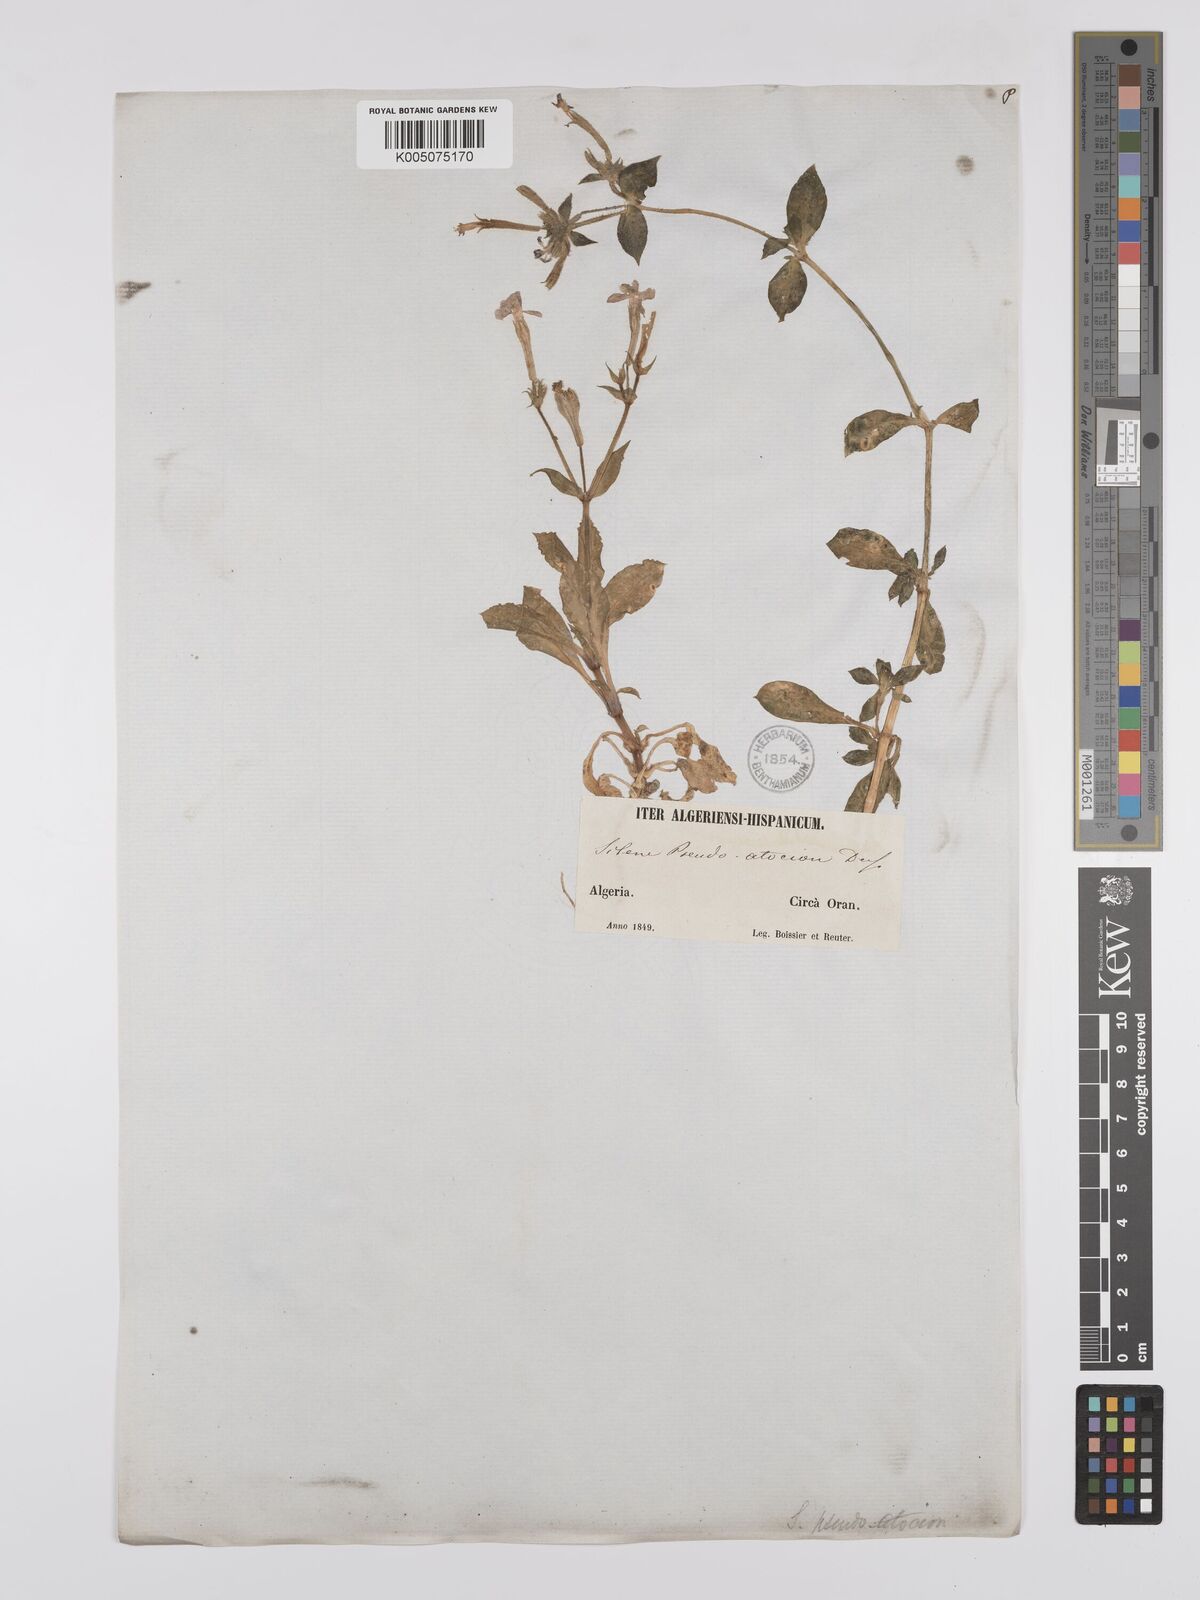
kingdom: Plantae
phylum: Tracheophyta
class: Magnoliopsida
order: Caryophyllales
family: Caryophyllaceae
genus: Silene
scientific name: Silene pseudoatocion
